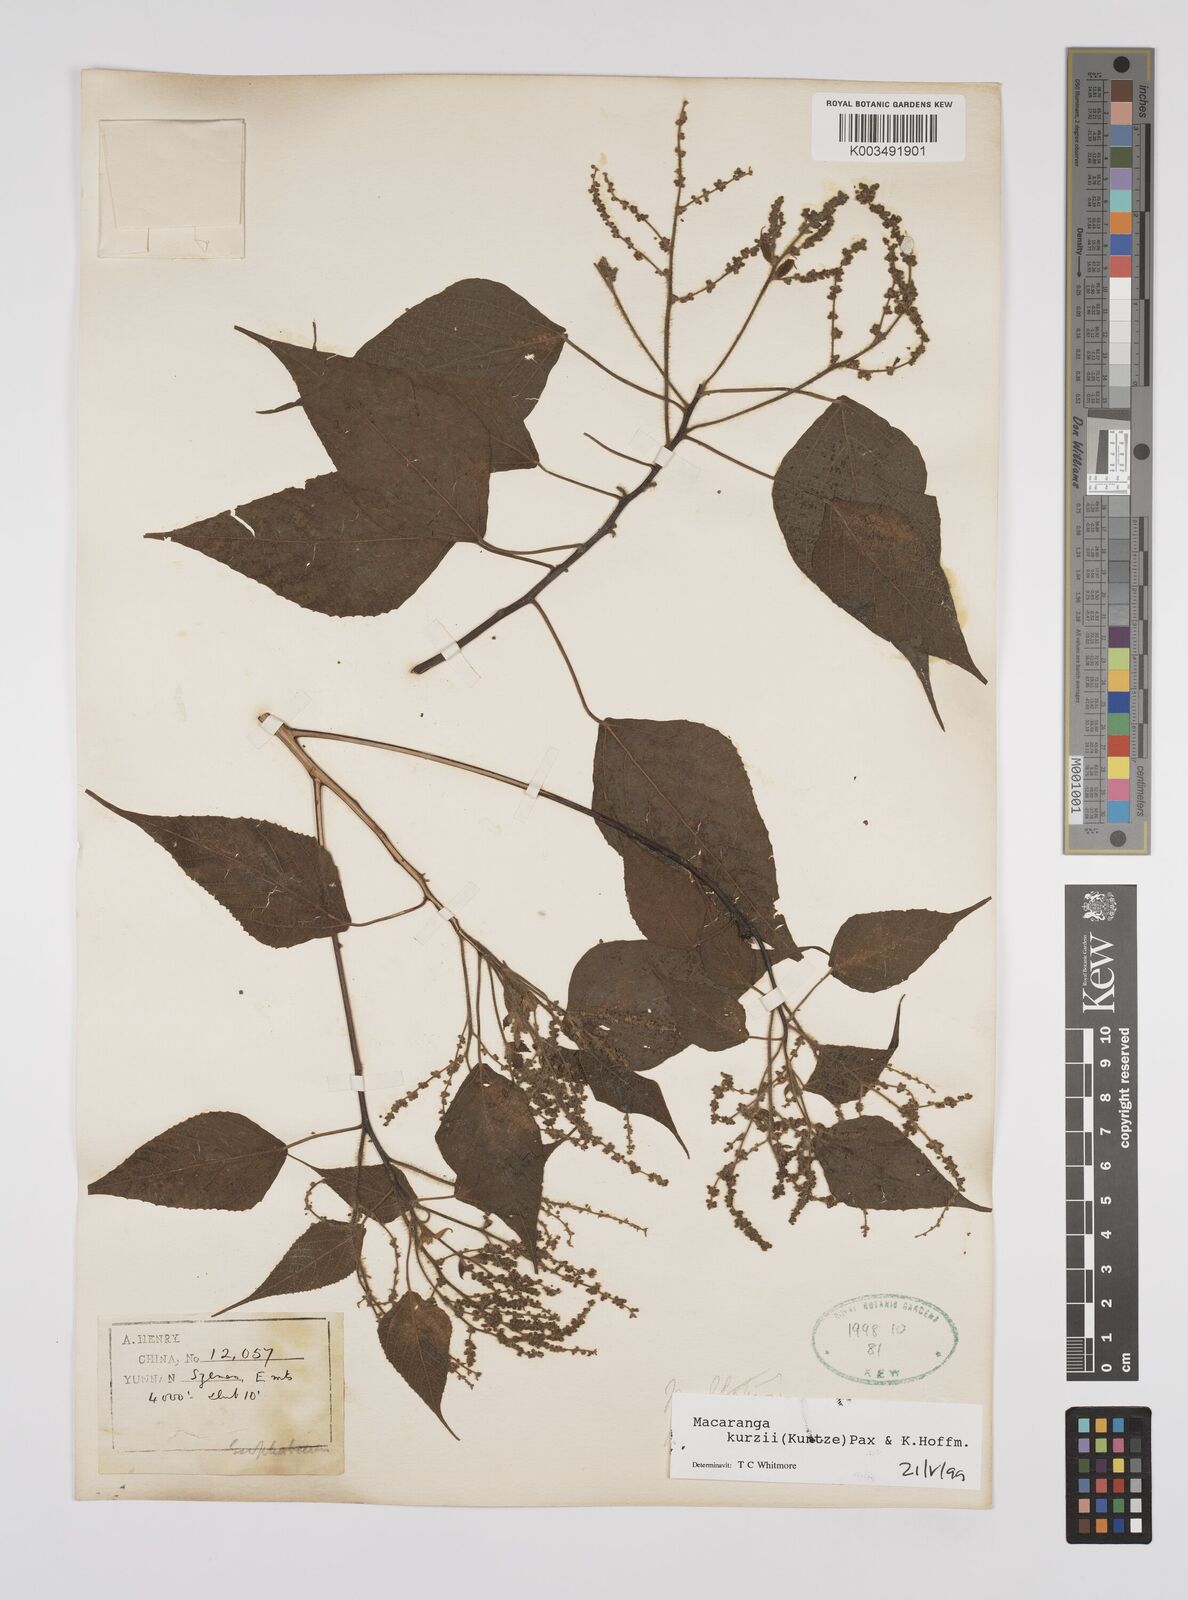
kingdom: Plantae
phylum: Tracheophyta
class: Magnoliopsida
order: Malpighiales
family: Euphorbiaceae
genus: Macaranga
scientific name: Macaranga kurzii
